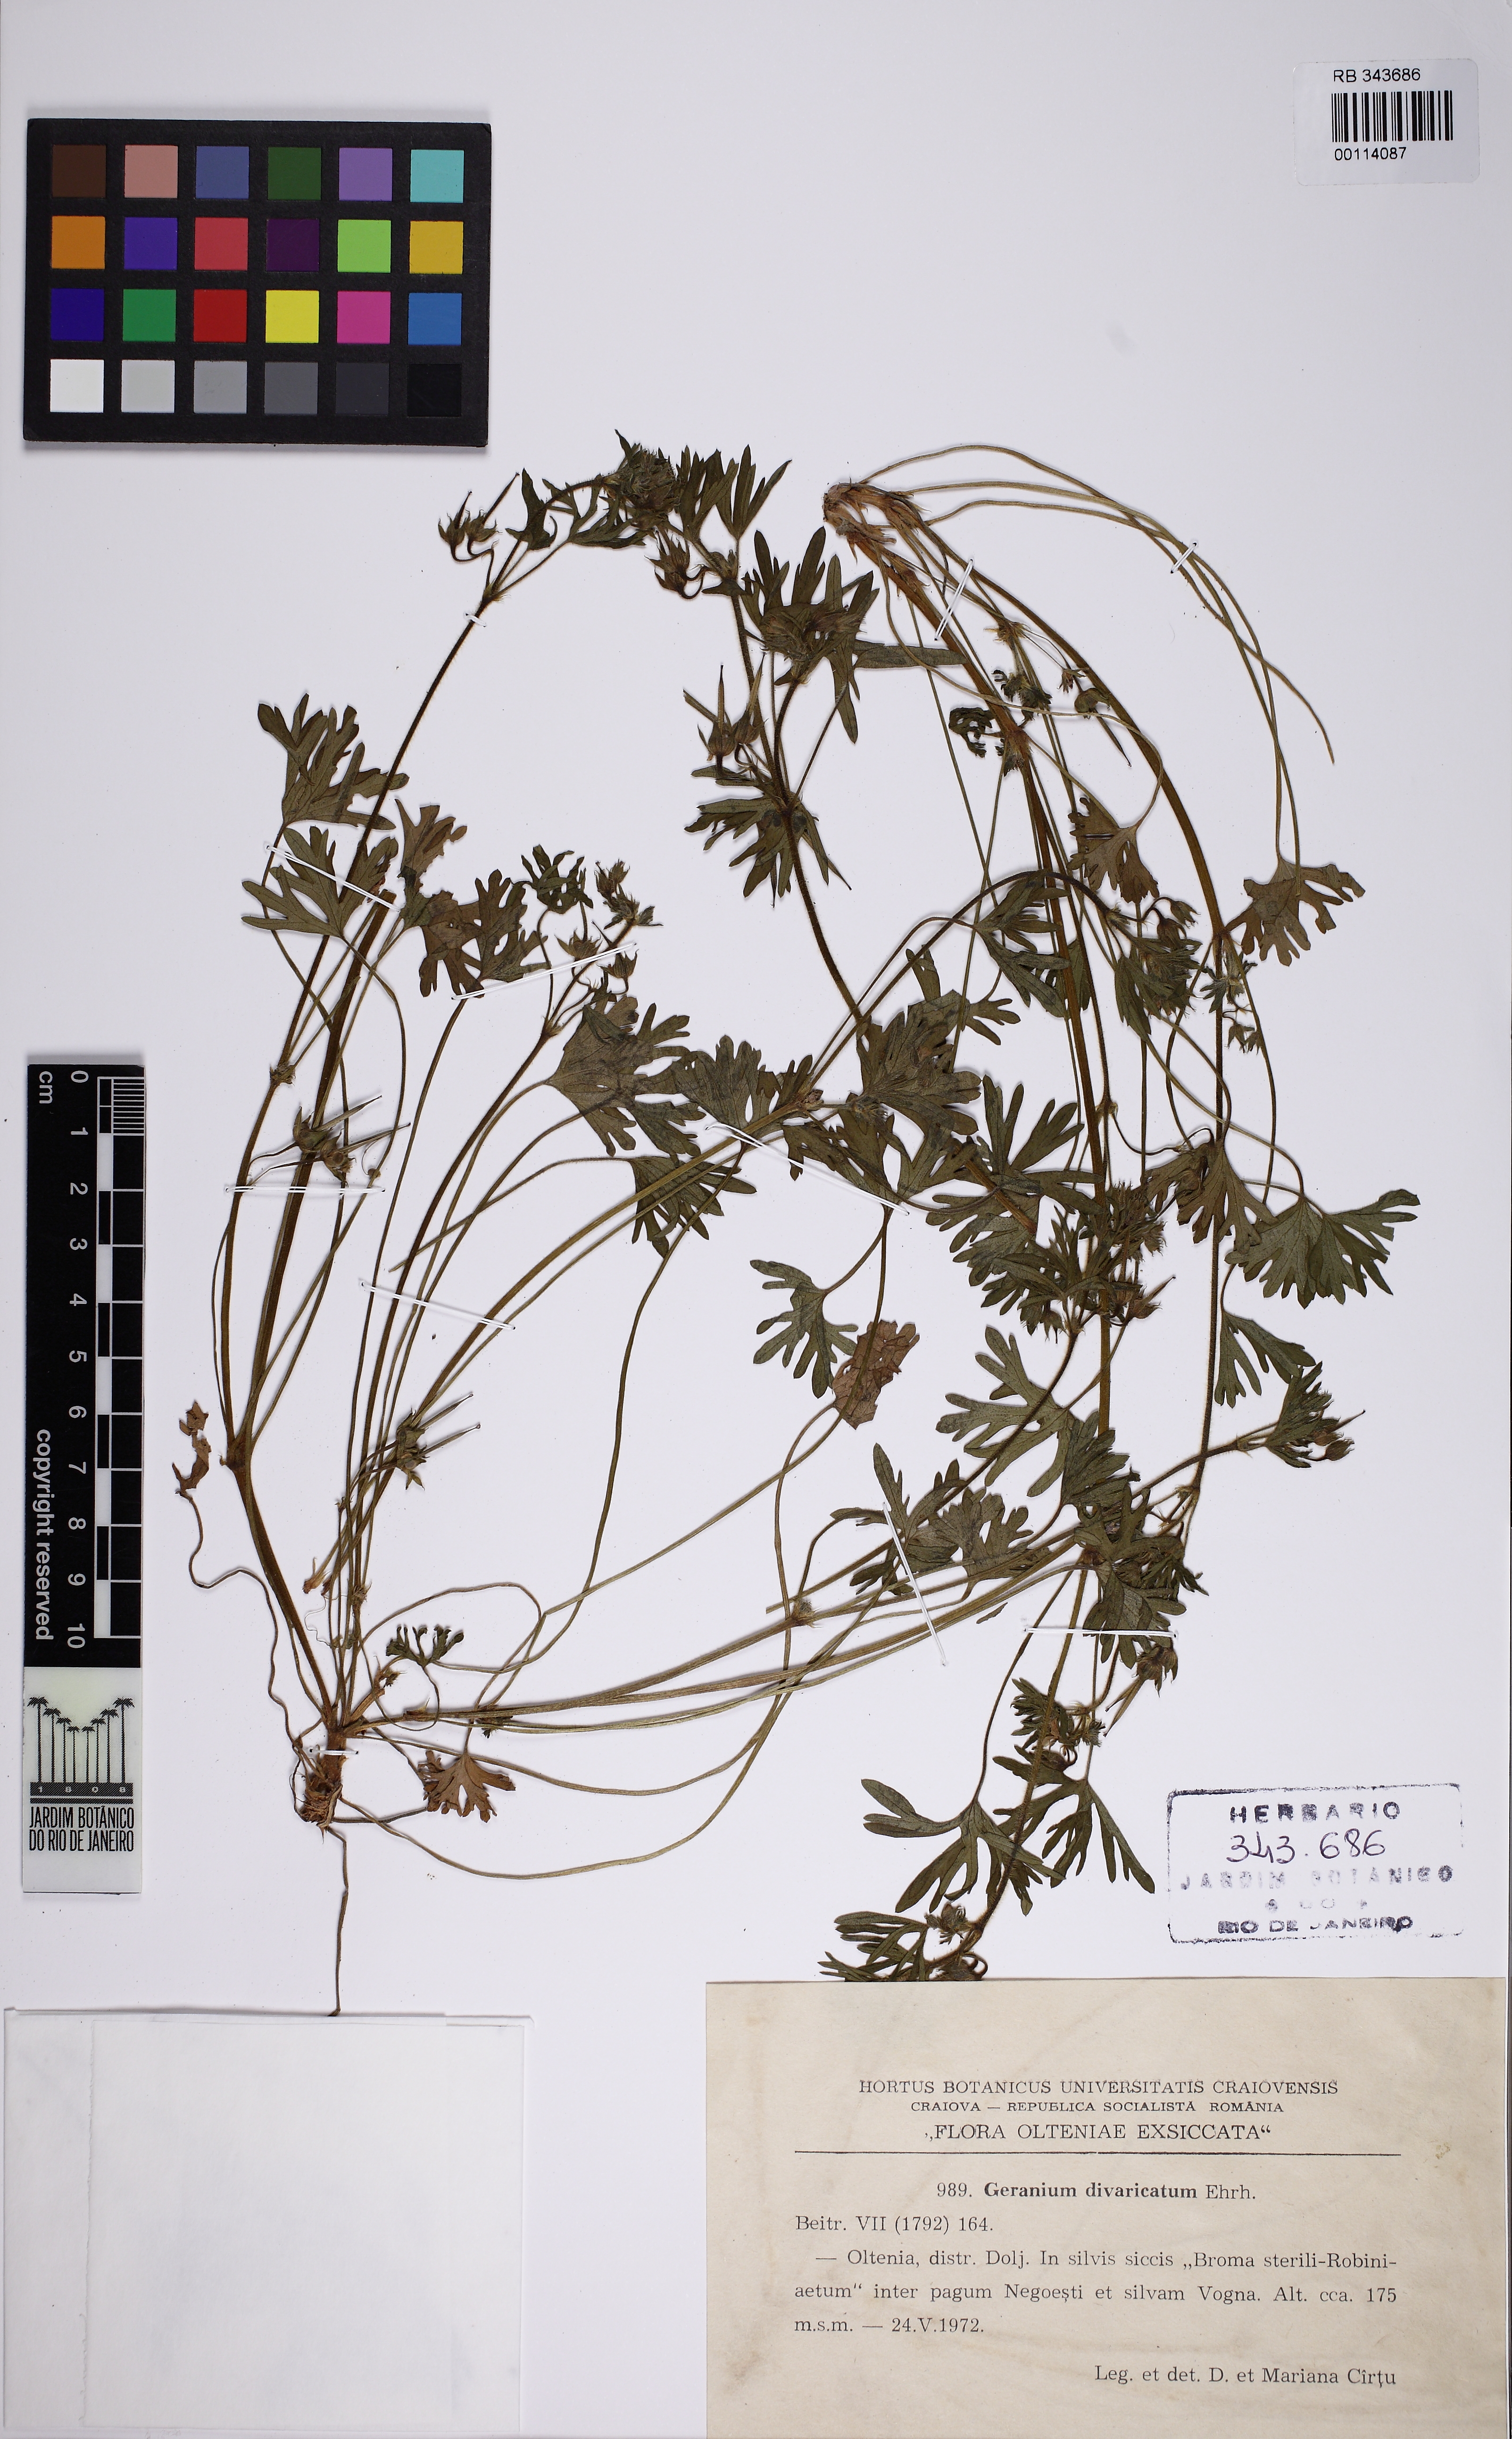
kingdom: Plantae
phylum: Tracheophyta
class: Magnoliopsida
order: Geraniales
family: Geraniaceae
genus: Geranium
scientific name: Geranium divaricatum
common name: Spreading crane's-bill
